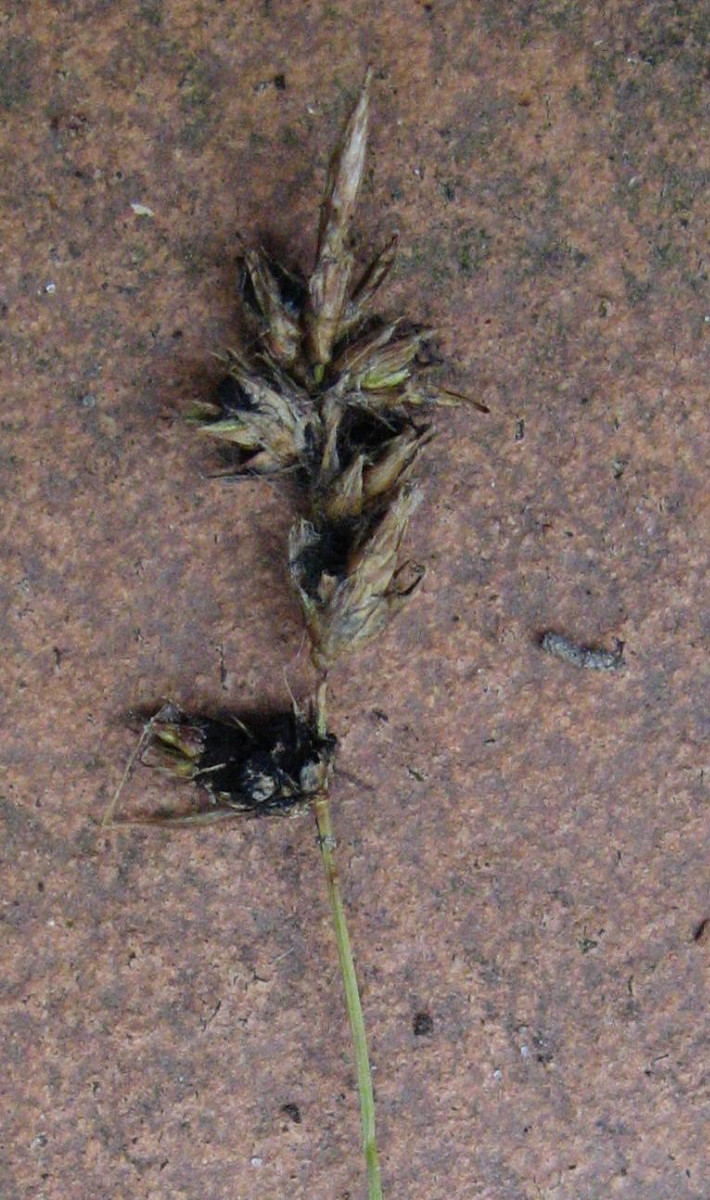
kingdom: Fungi
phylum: Basidiomycota
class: Ustilaginomycetes
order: Ustilaginales
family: Anthracoideaceae
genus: Anthracoidea
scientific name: Anthracoidea arenariae
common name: sandstar-brand
